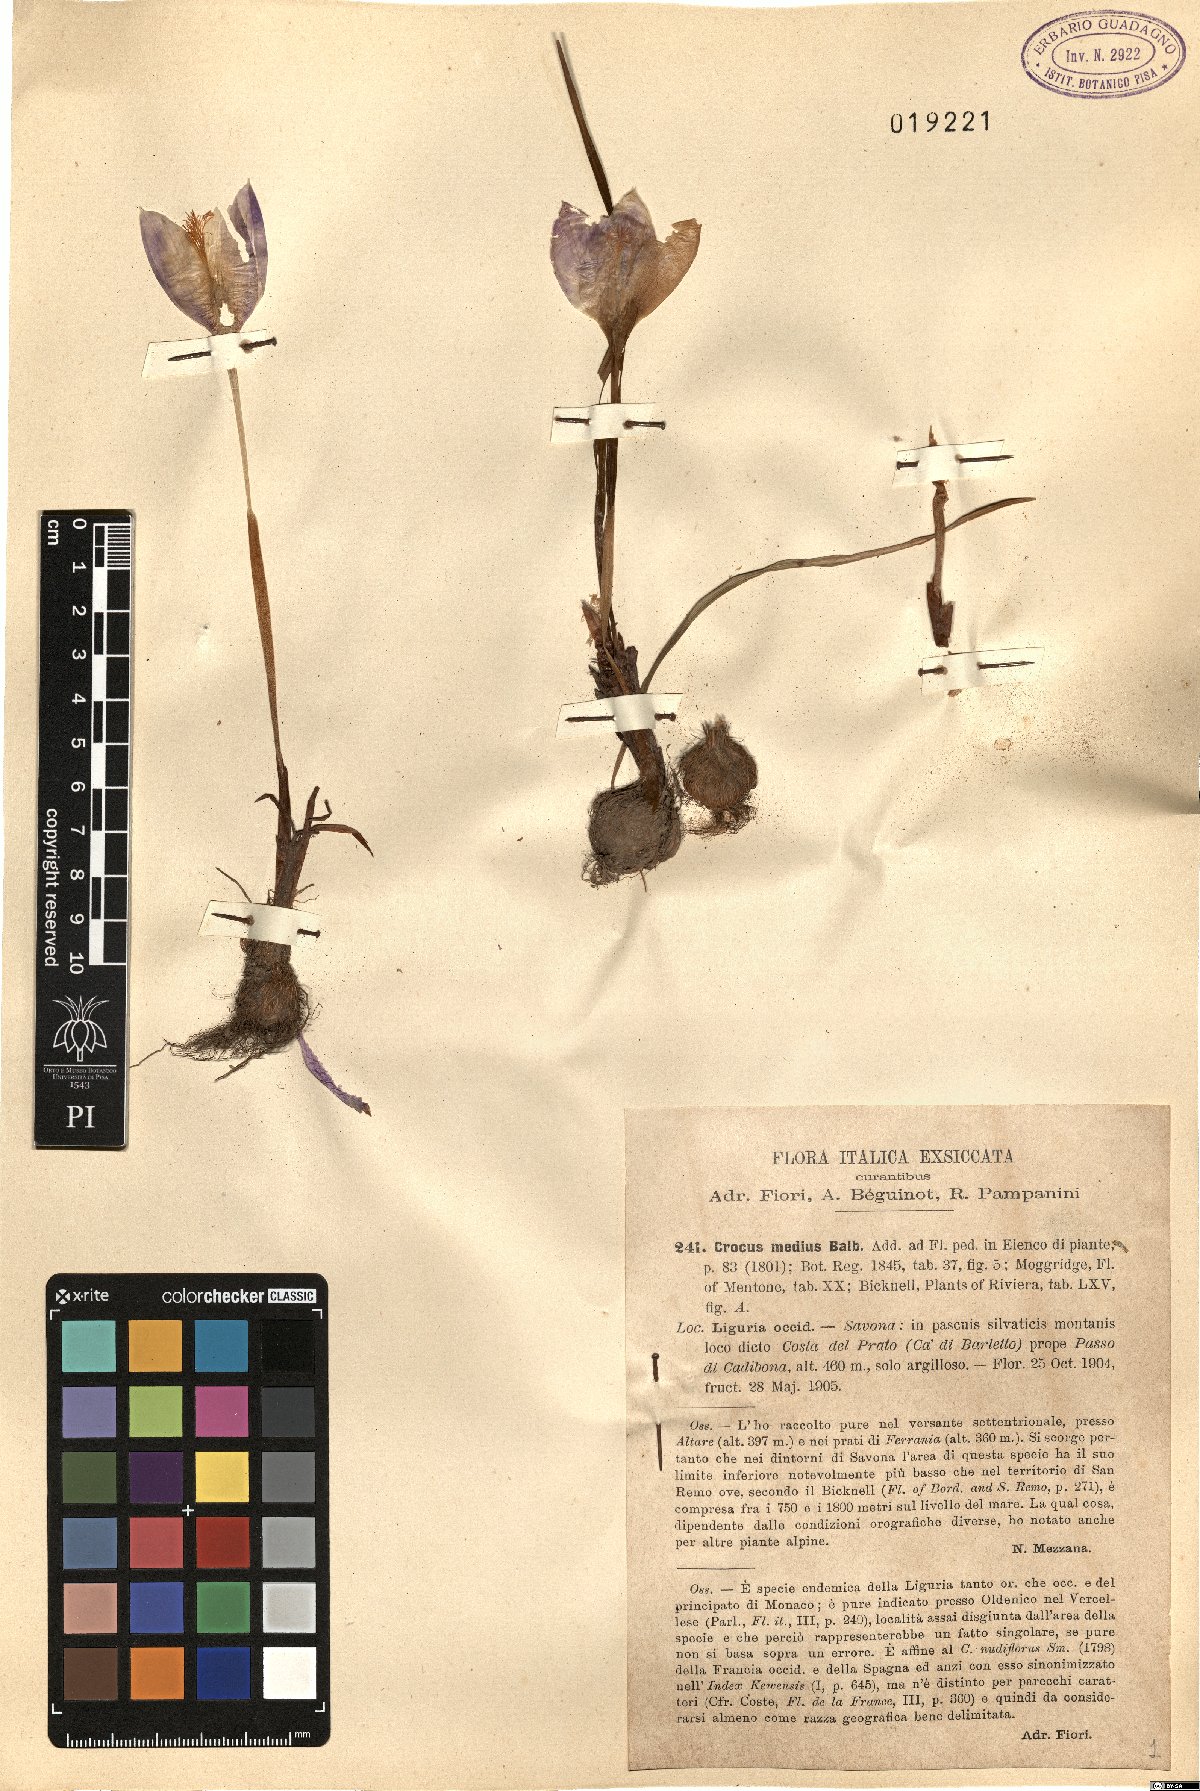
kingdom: Plantae
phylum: Tracheophyta
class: Liliopsida
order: Asparagales
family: Iridaceae
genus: Crocus
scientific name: Crocus nudiflorus
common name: Autumn crocus
